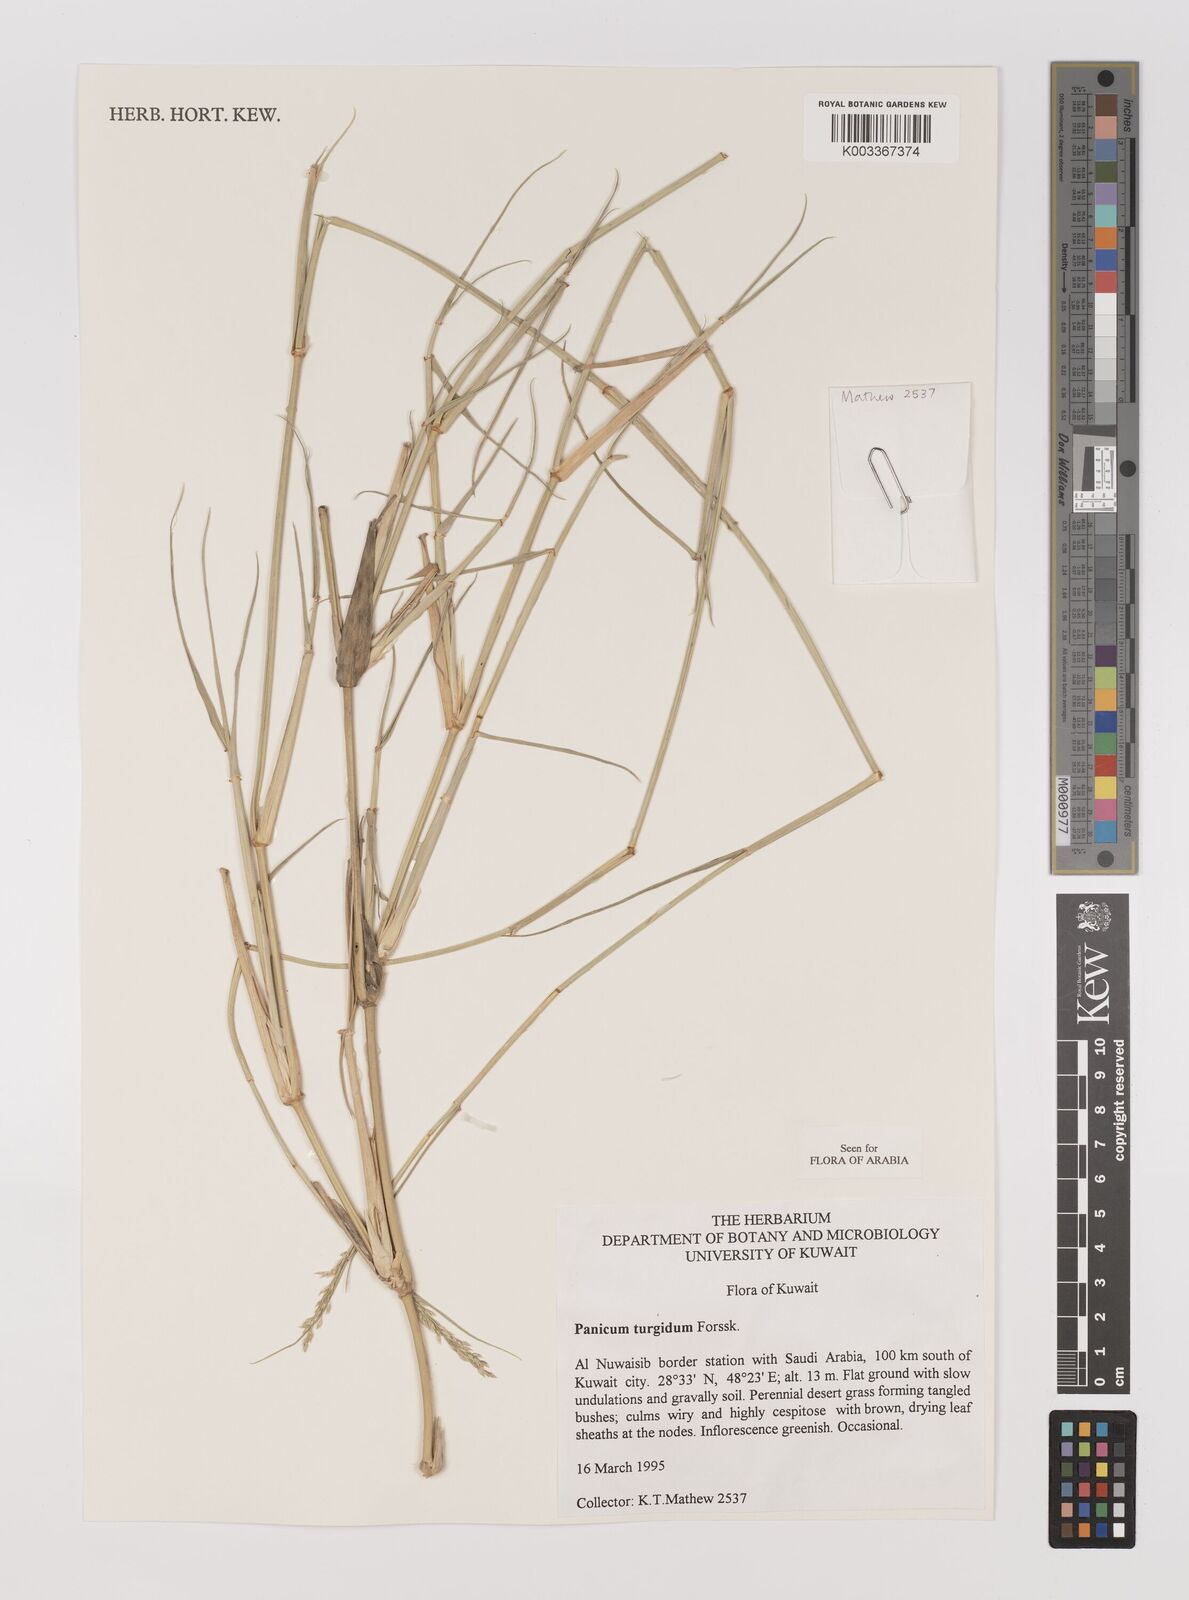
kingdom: Plantae
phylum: Tracheophyta
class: Liliopsida
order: Poales
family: Poaceae
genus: Panicum
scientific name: Panicum turgidum
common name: Desert grass
